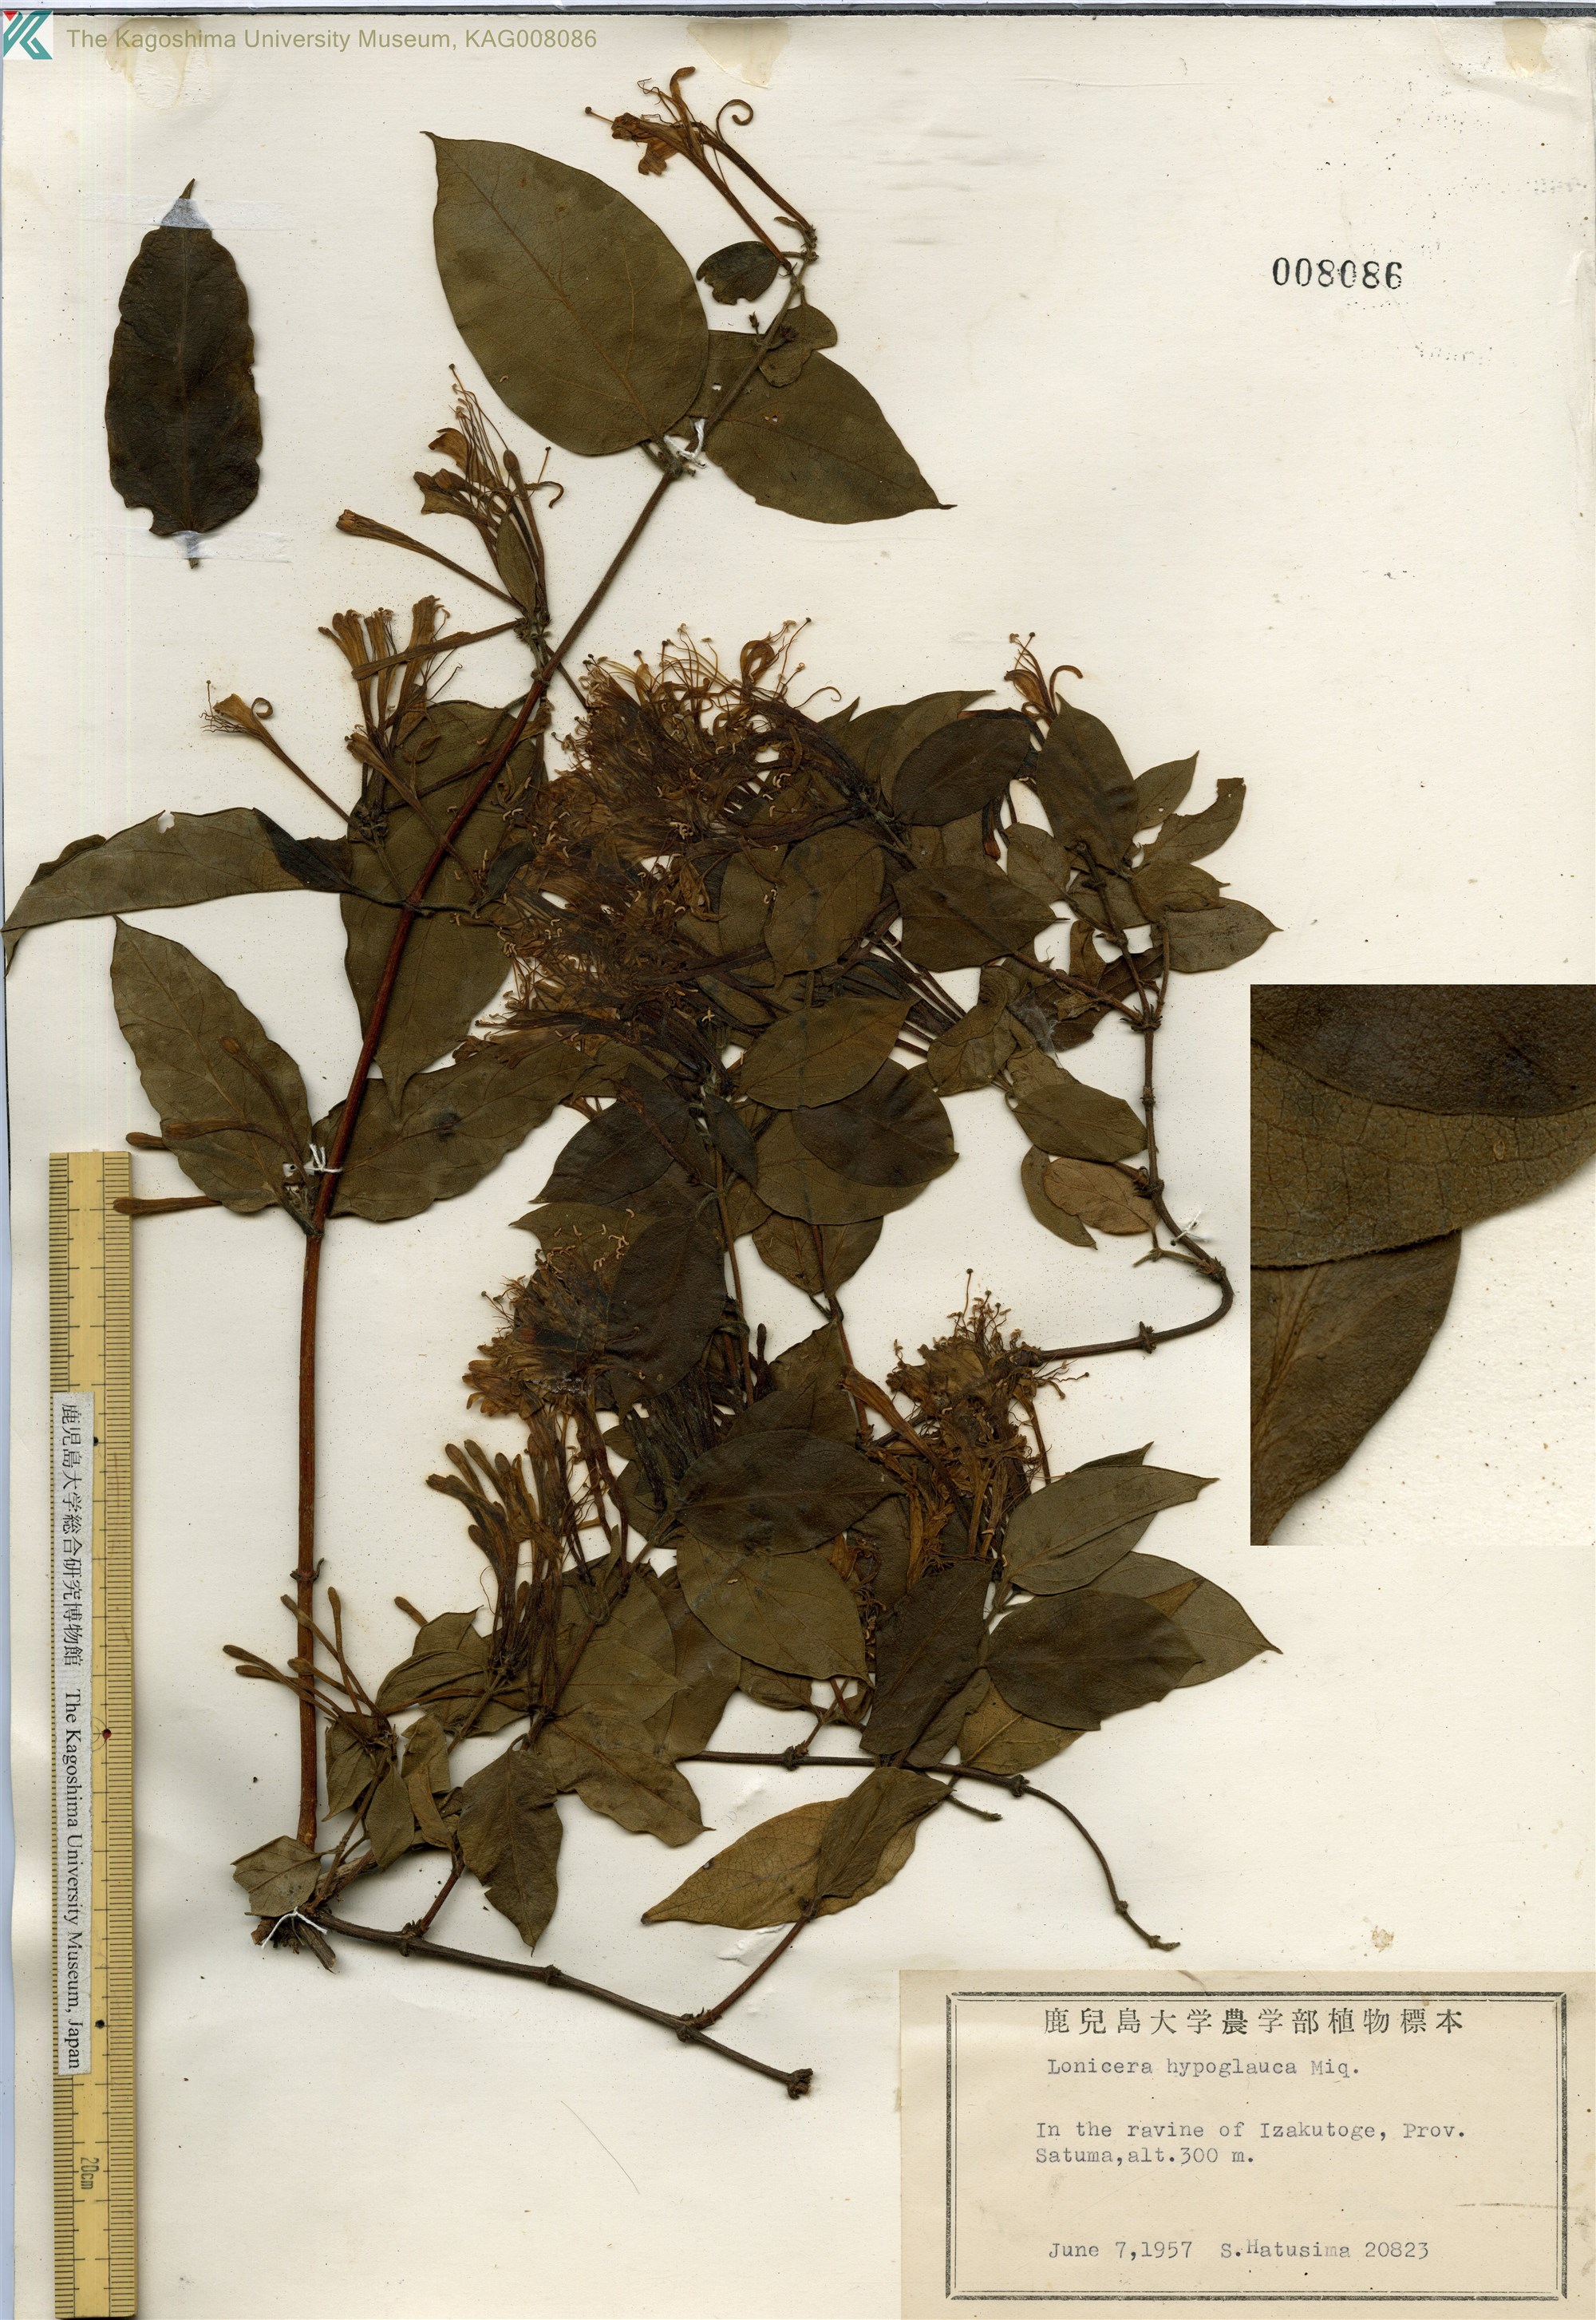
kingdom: Plantae
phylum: Tracheophyta
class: Magnoliopsida
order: Dipsacales
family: Caprifoliaceae
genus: Lonicera
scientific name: Lonicera hypoglauca
